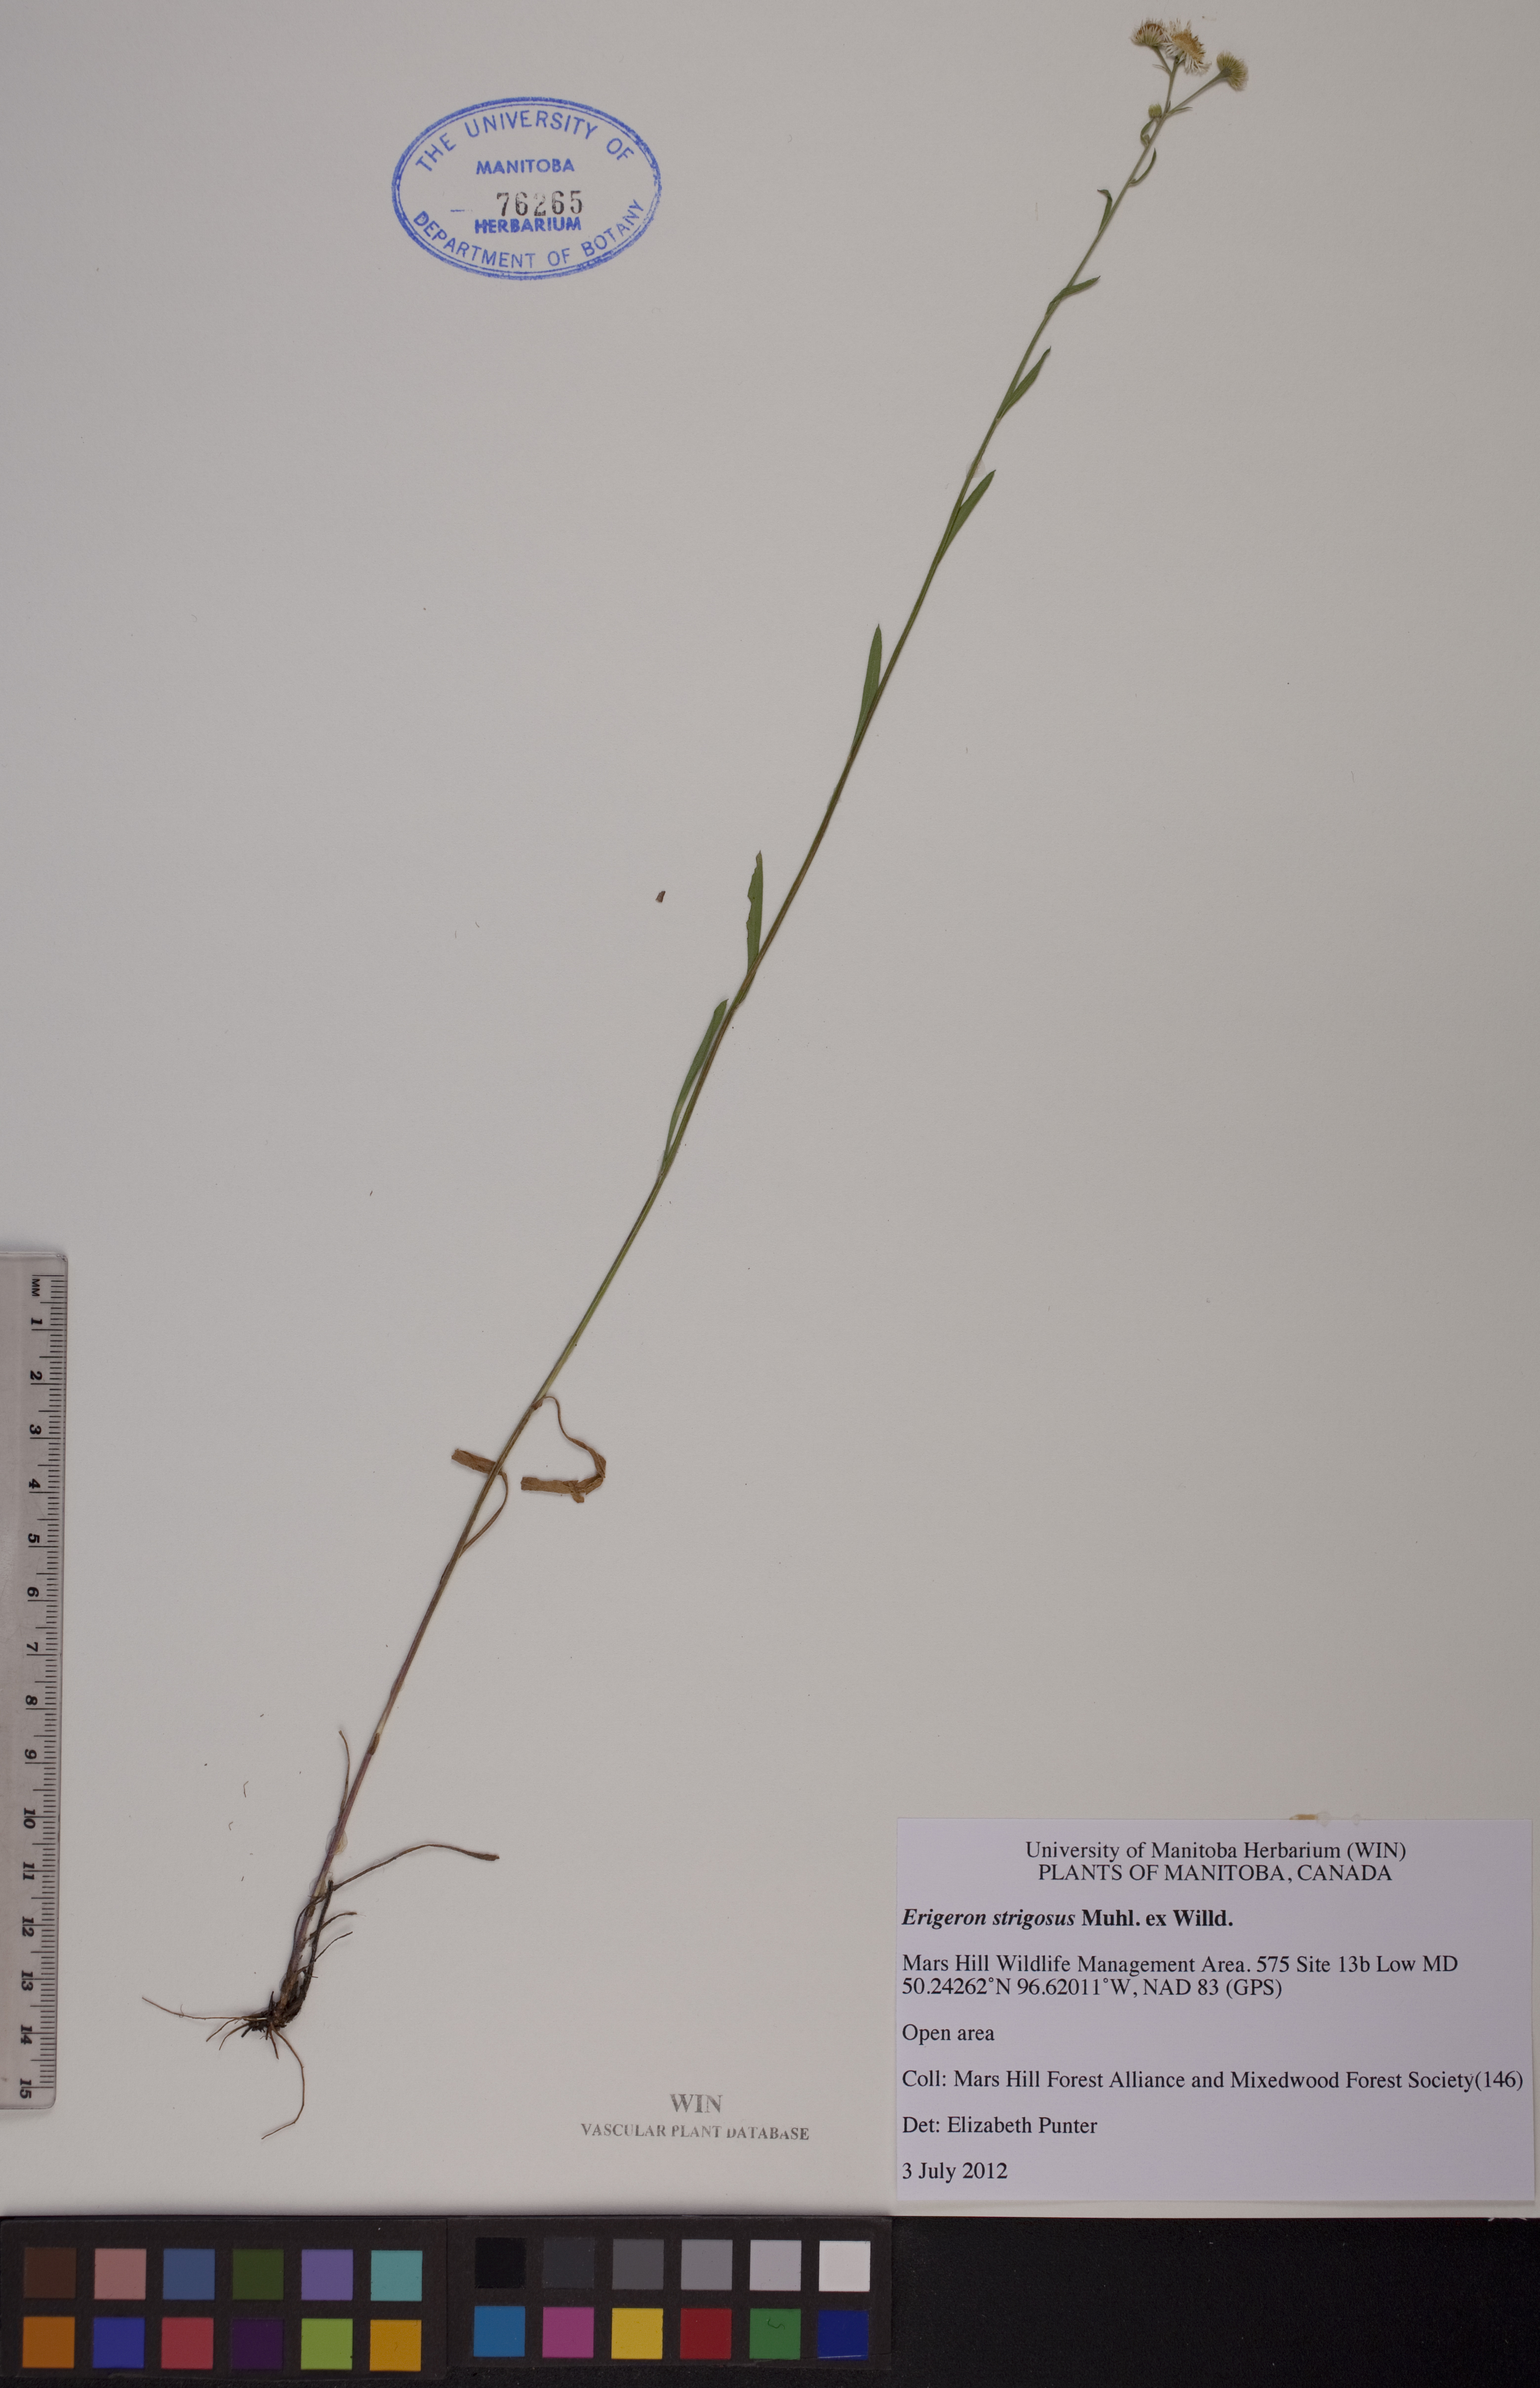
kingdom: Plantae
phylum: Tracheophyta
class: Magnoliopsida
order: Asterales
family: Asteraceae
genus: Erigeron
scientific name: Erigeron strigosus
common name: Common eastern fleabane
